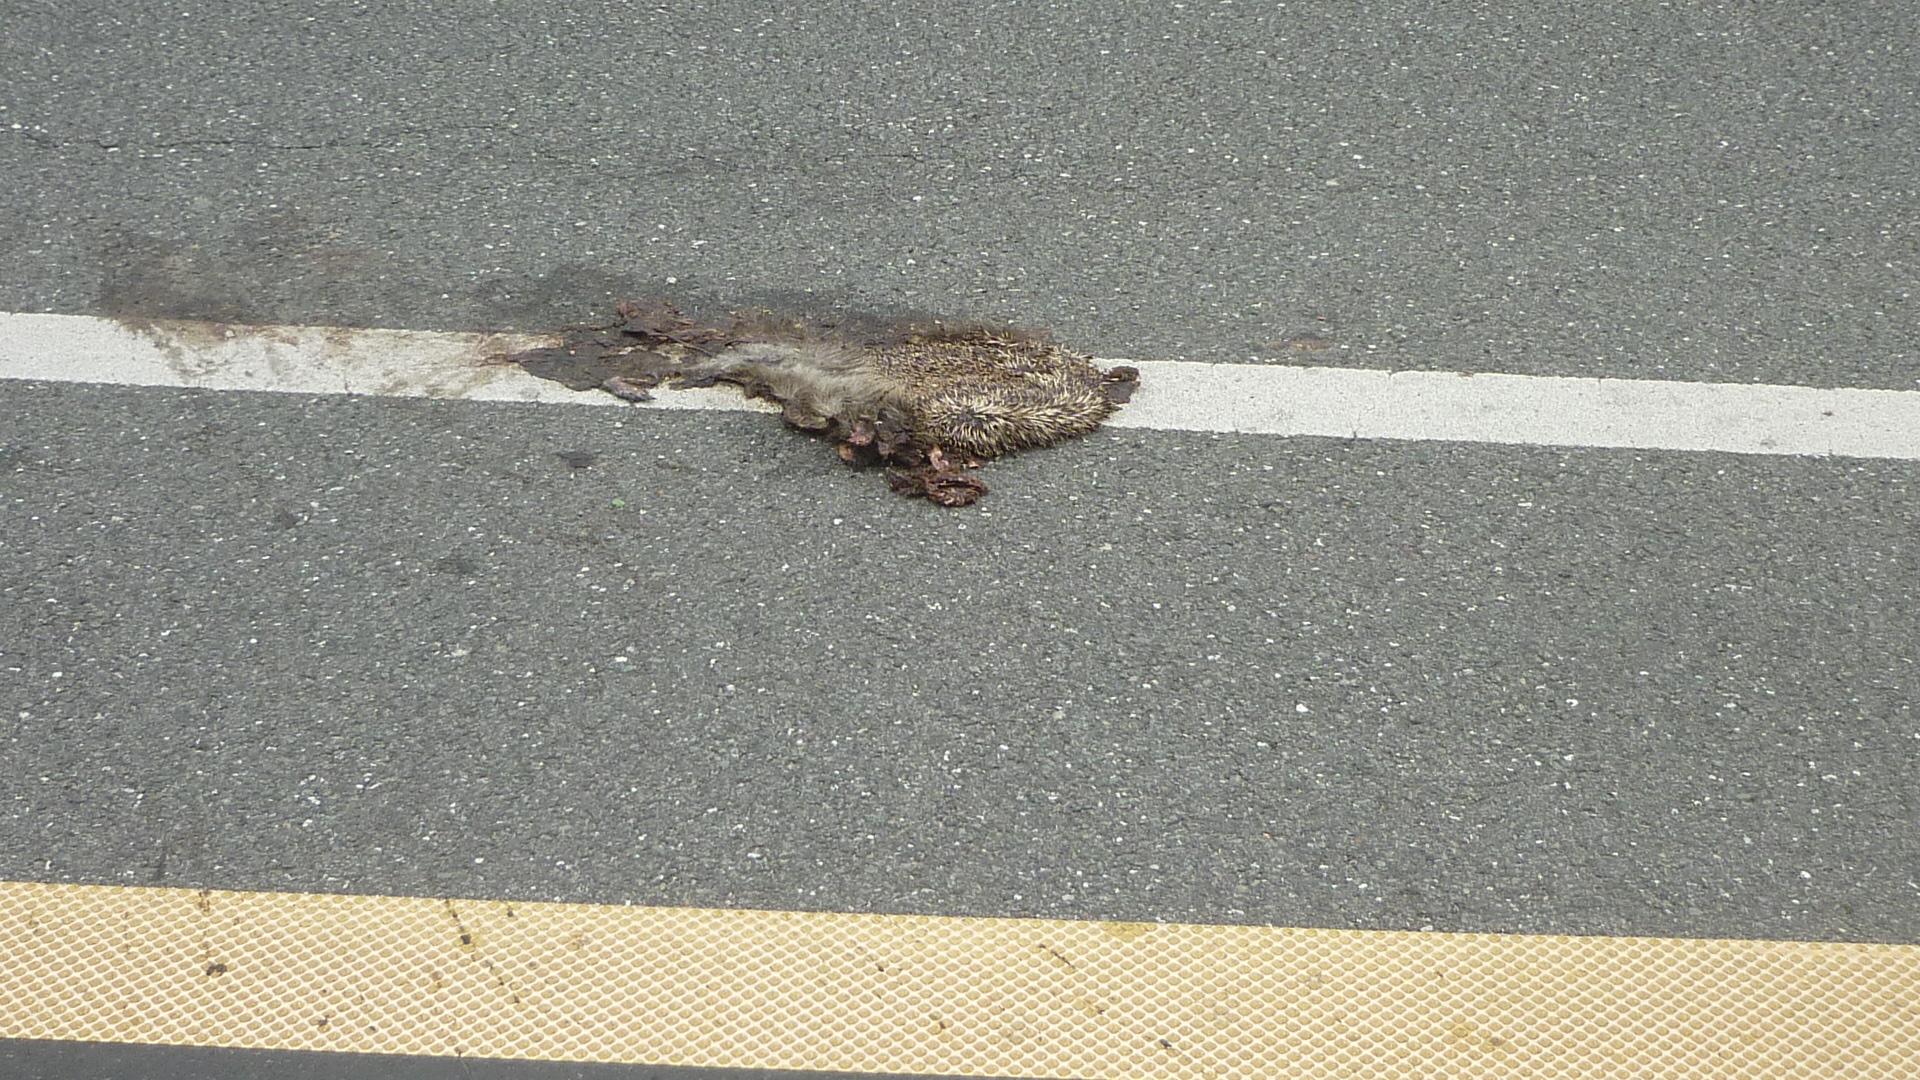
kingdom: Animalia
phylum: Chordata
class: Mammalia
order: Erinaceomorpha
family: Erinaceidae
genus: Erinaceus
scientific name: Erinaceus
